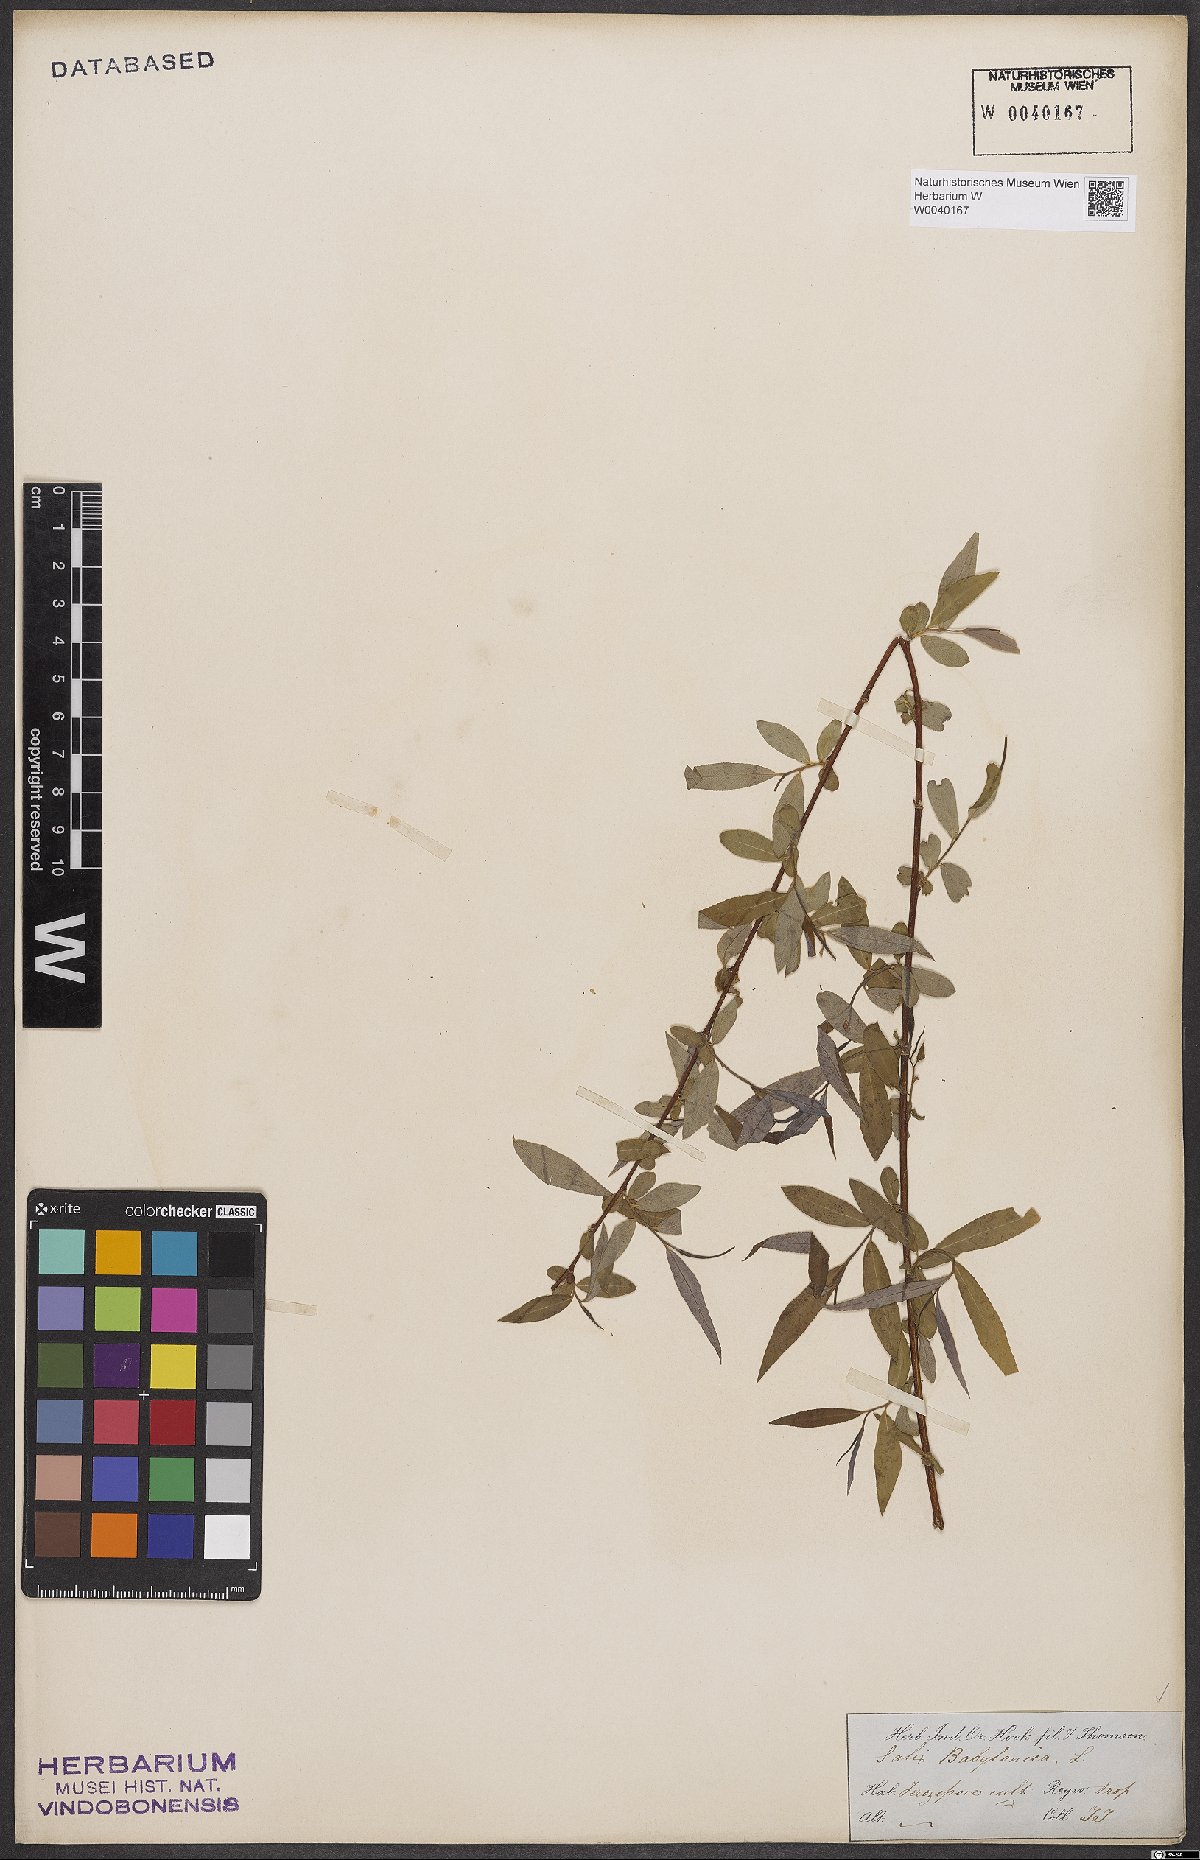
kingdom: Plantae
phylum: Tracheophyta
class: Magnoliopsida
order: Malpighiales
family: Salicaceae
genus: Salix
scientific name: Salix babylonica
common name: Weeping willow
